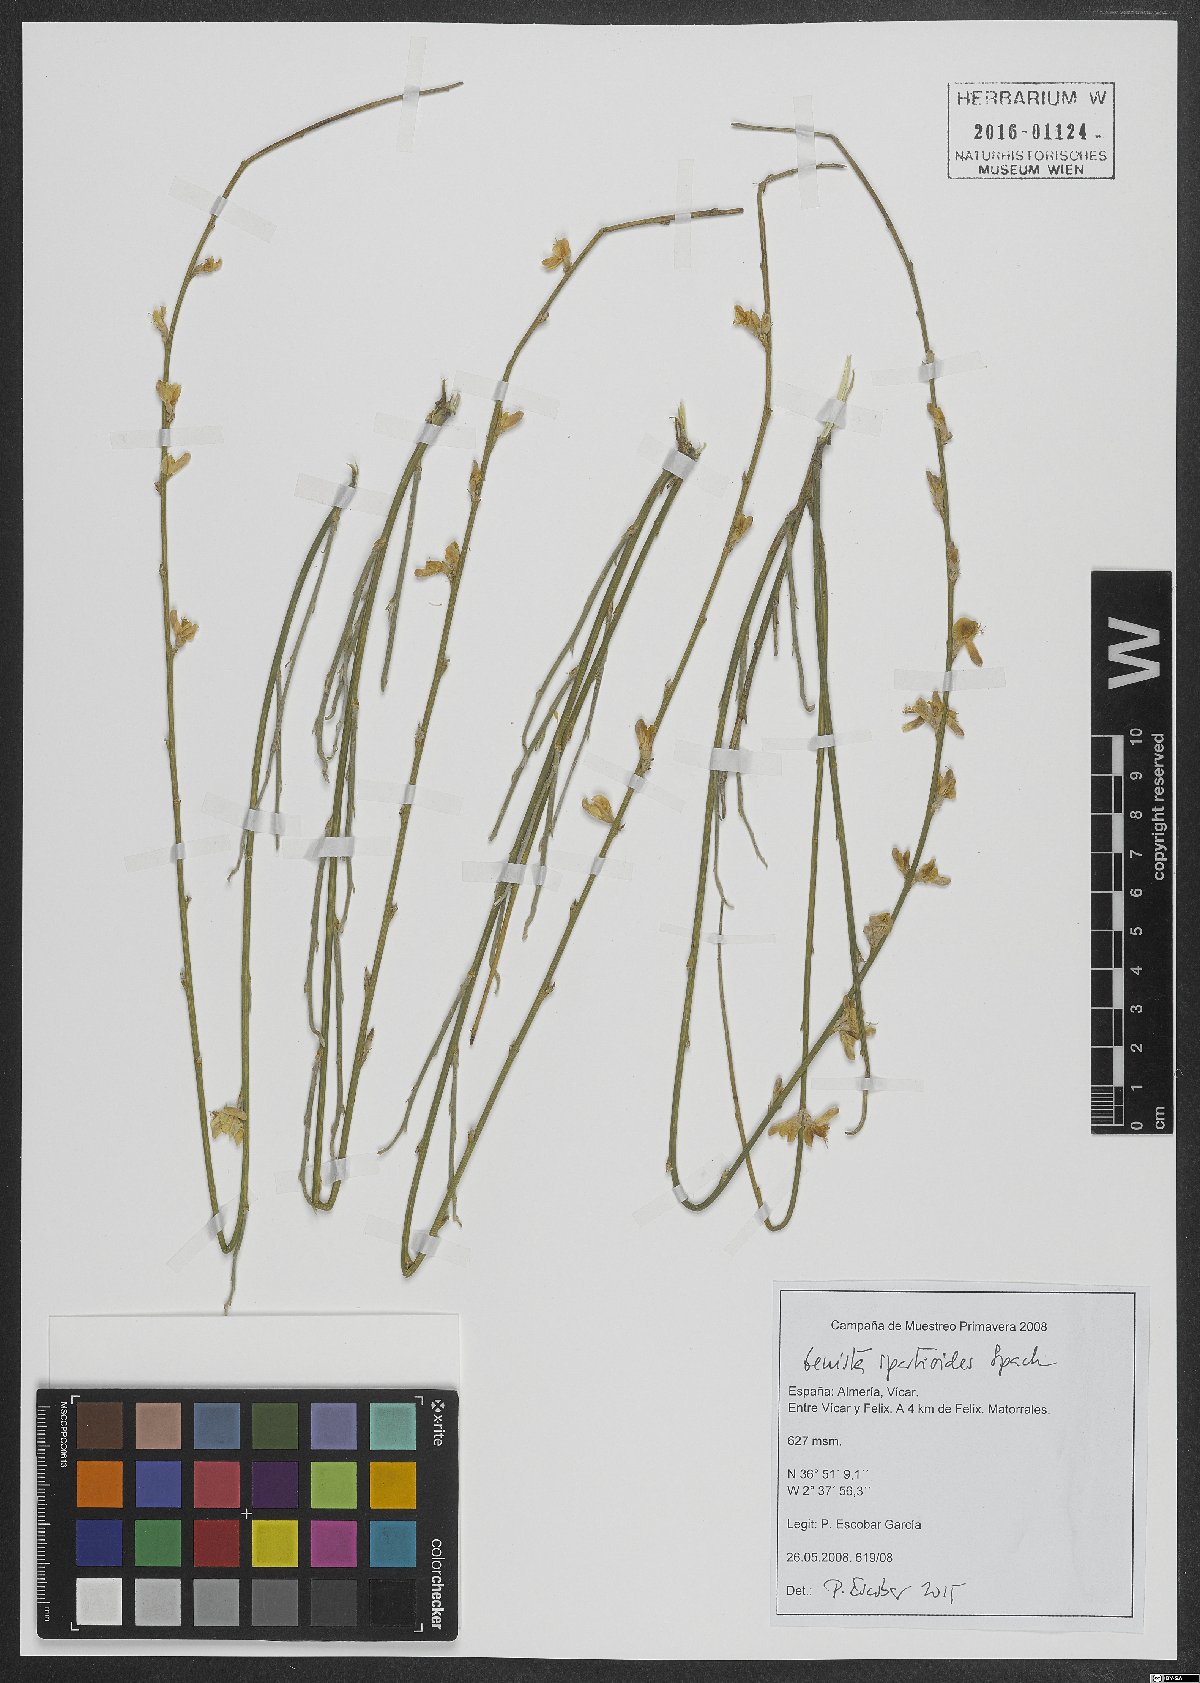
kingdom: Plantae
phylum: Tracheophyta
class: Magnoliopsida
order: Fabales
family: Fabaceae
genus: Genista
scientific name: Genista spartioides
